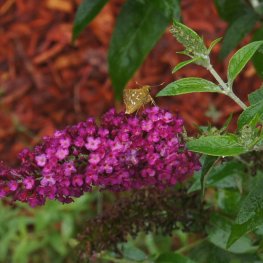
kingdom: Animalia
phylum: Arthropoda
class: Insecta
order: Lepidoptera
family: Hesperiidae
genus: Hesperia
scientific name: Hesperia comma
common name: Common Branded Skipper
